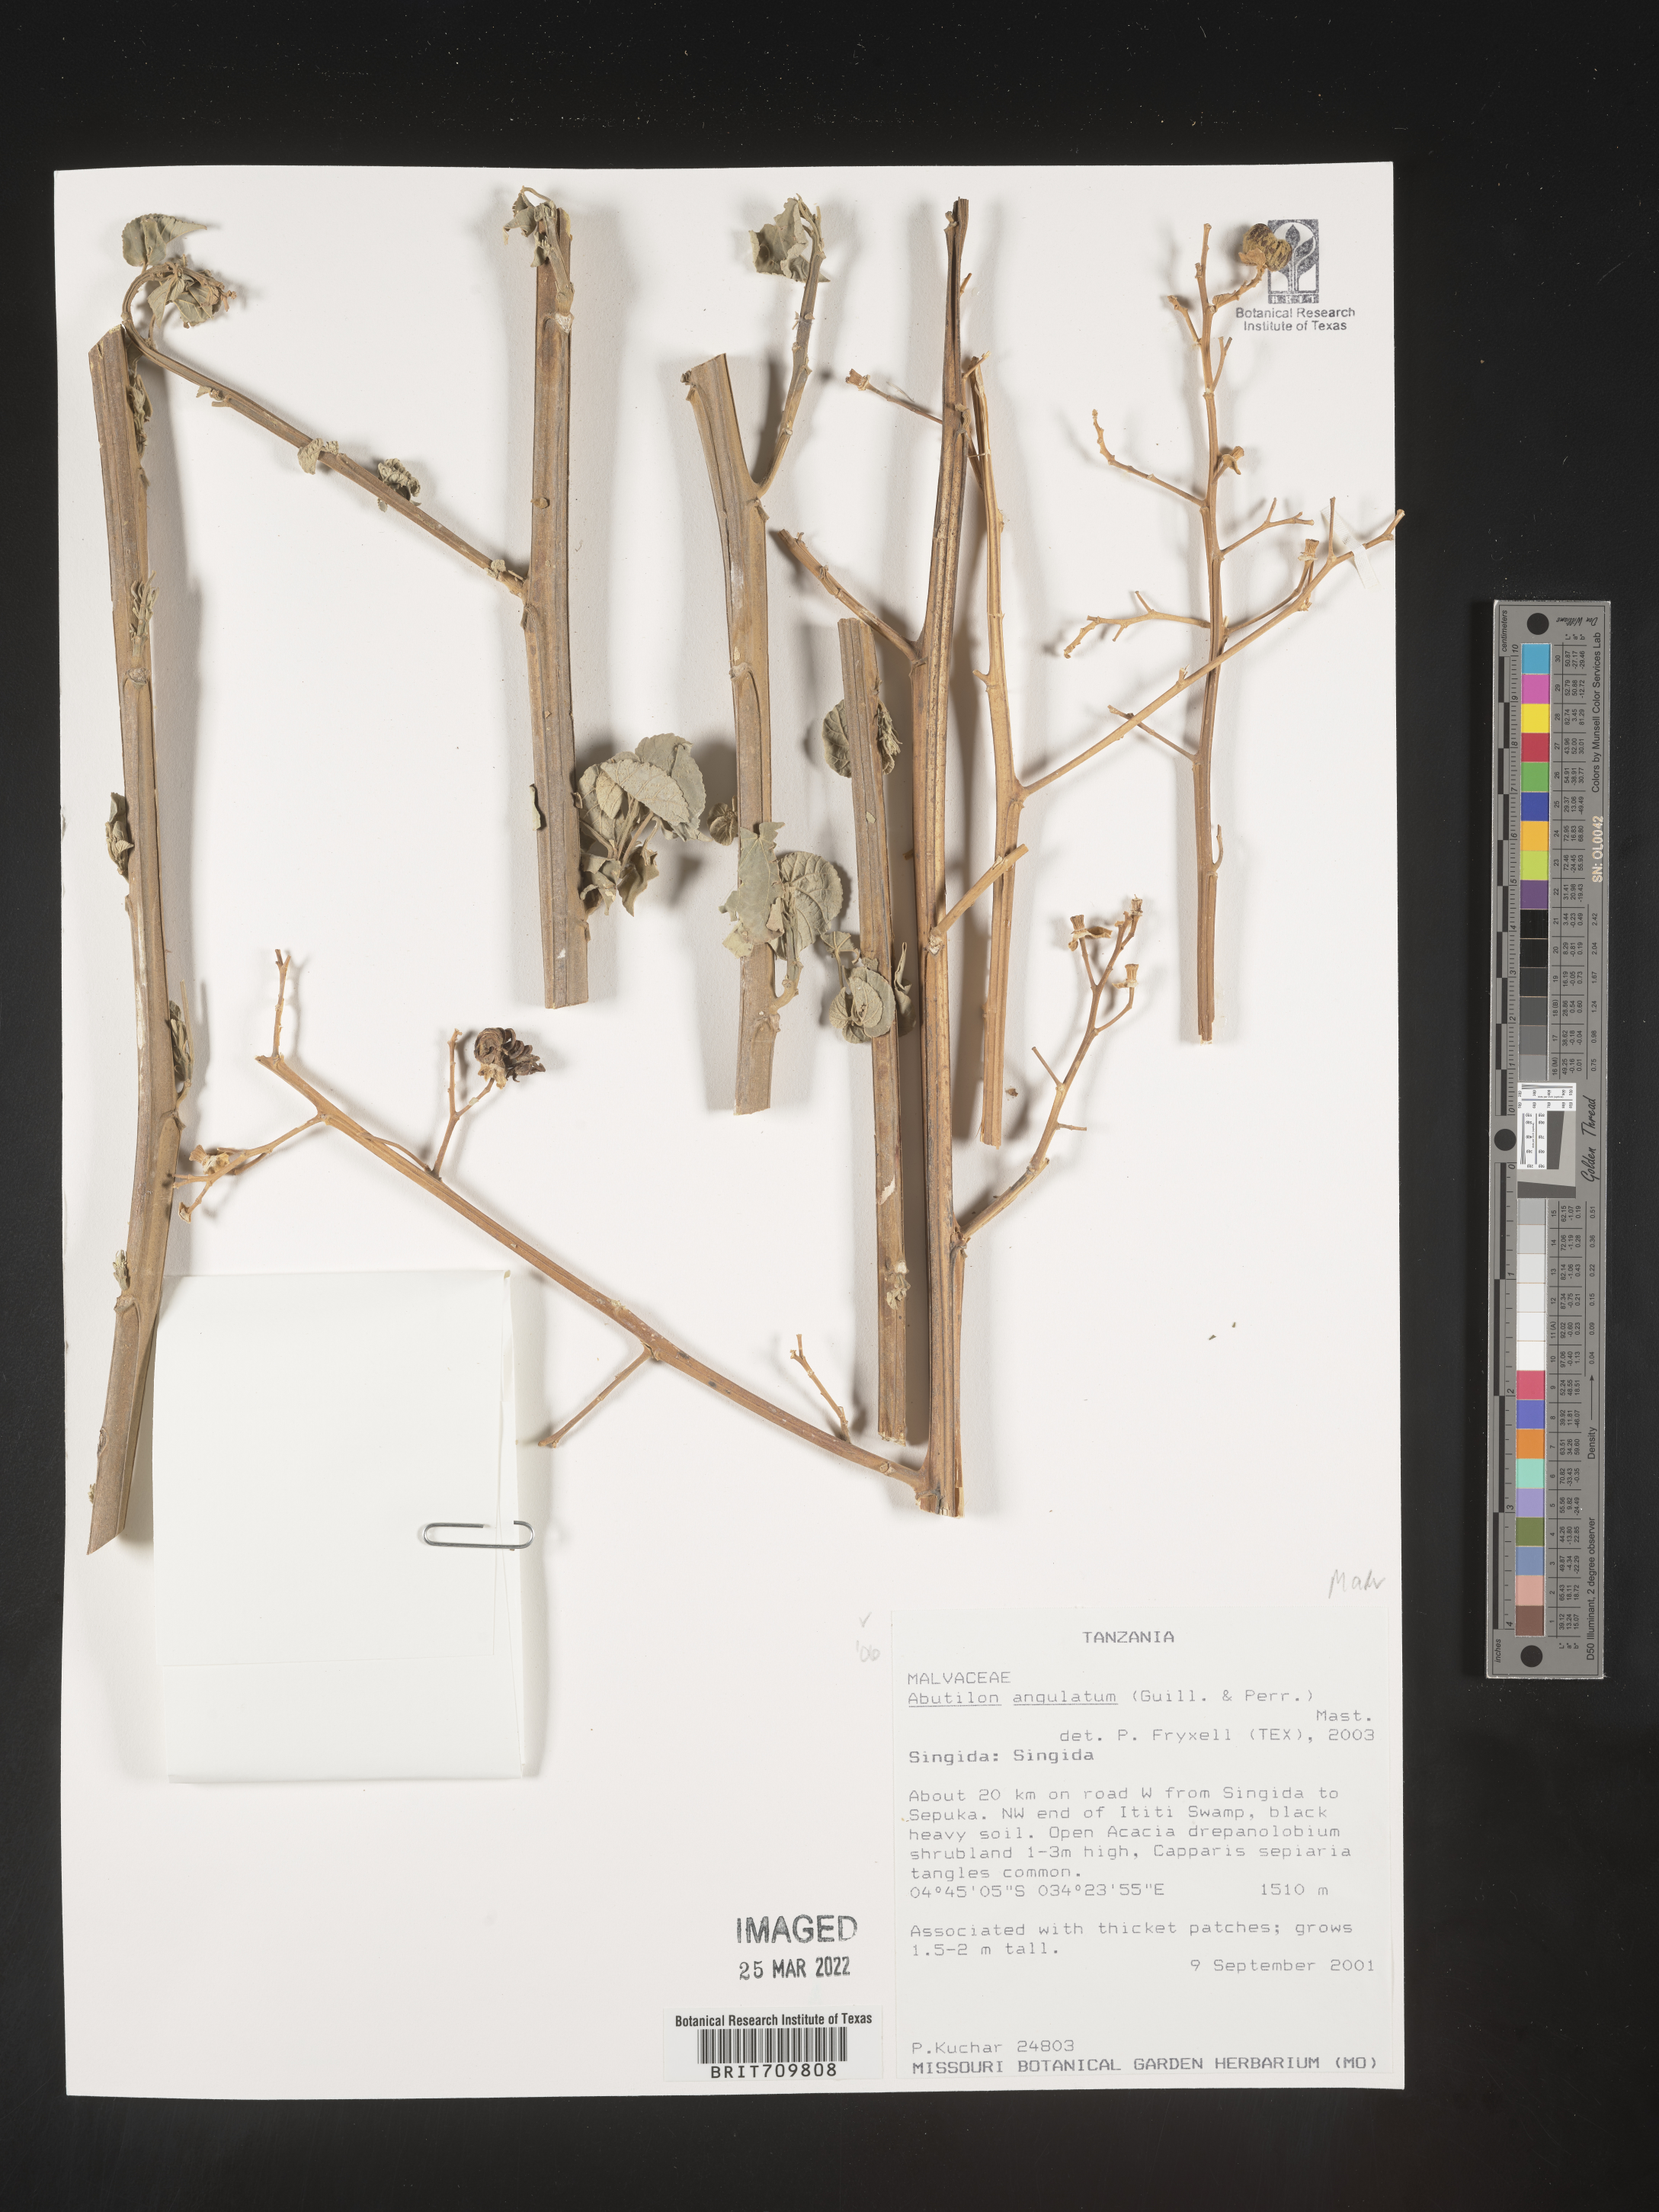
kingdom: Plantae
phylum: Tracheophyta
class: Magnoliopsida
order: Malvales
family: Malvaceae
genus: Abutilon
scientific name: Abutilon
